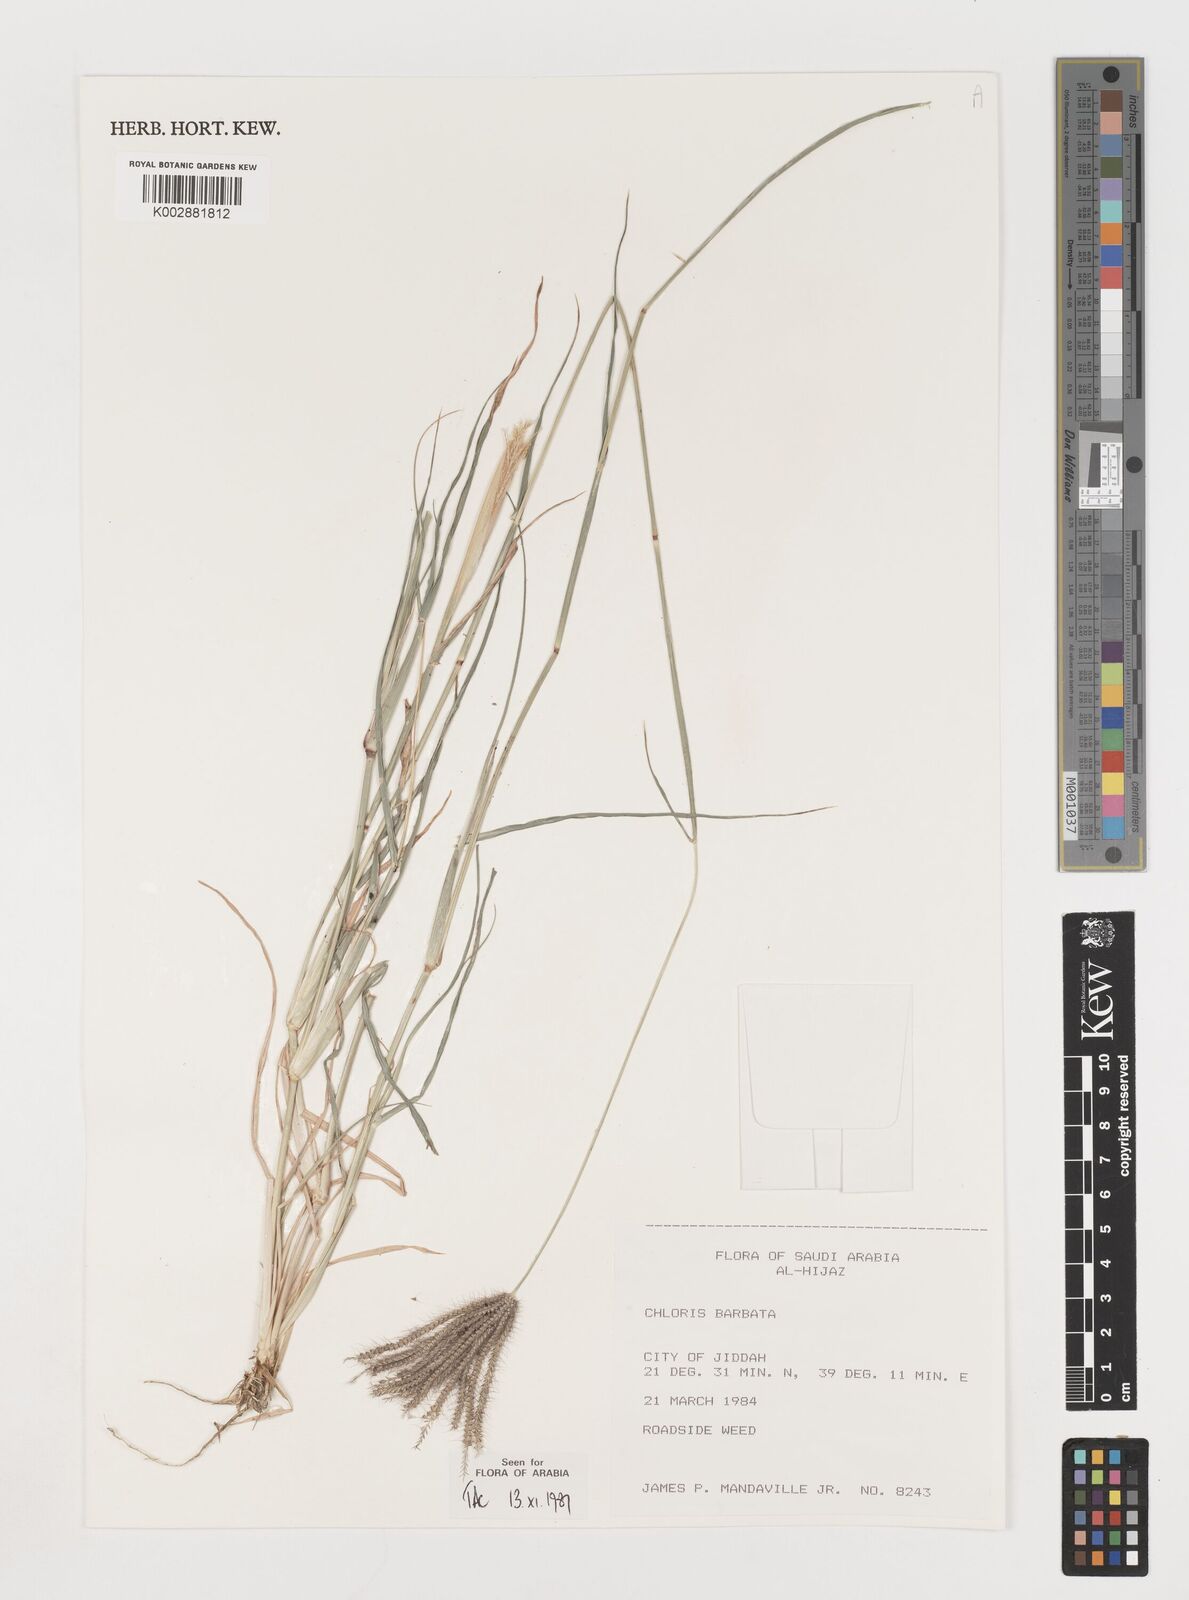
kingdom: Plantae
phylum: Tracheophyta
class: Liliopsida
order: Poales
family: Poaceae
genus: Chloris
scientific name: Chloris barbata
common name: Swollen fingergrass
